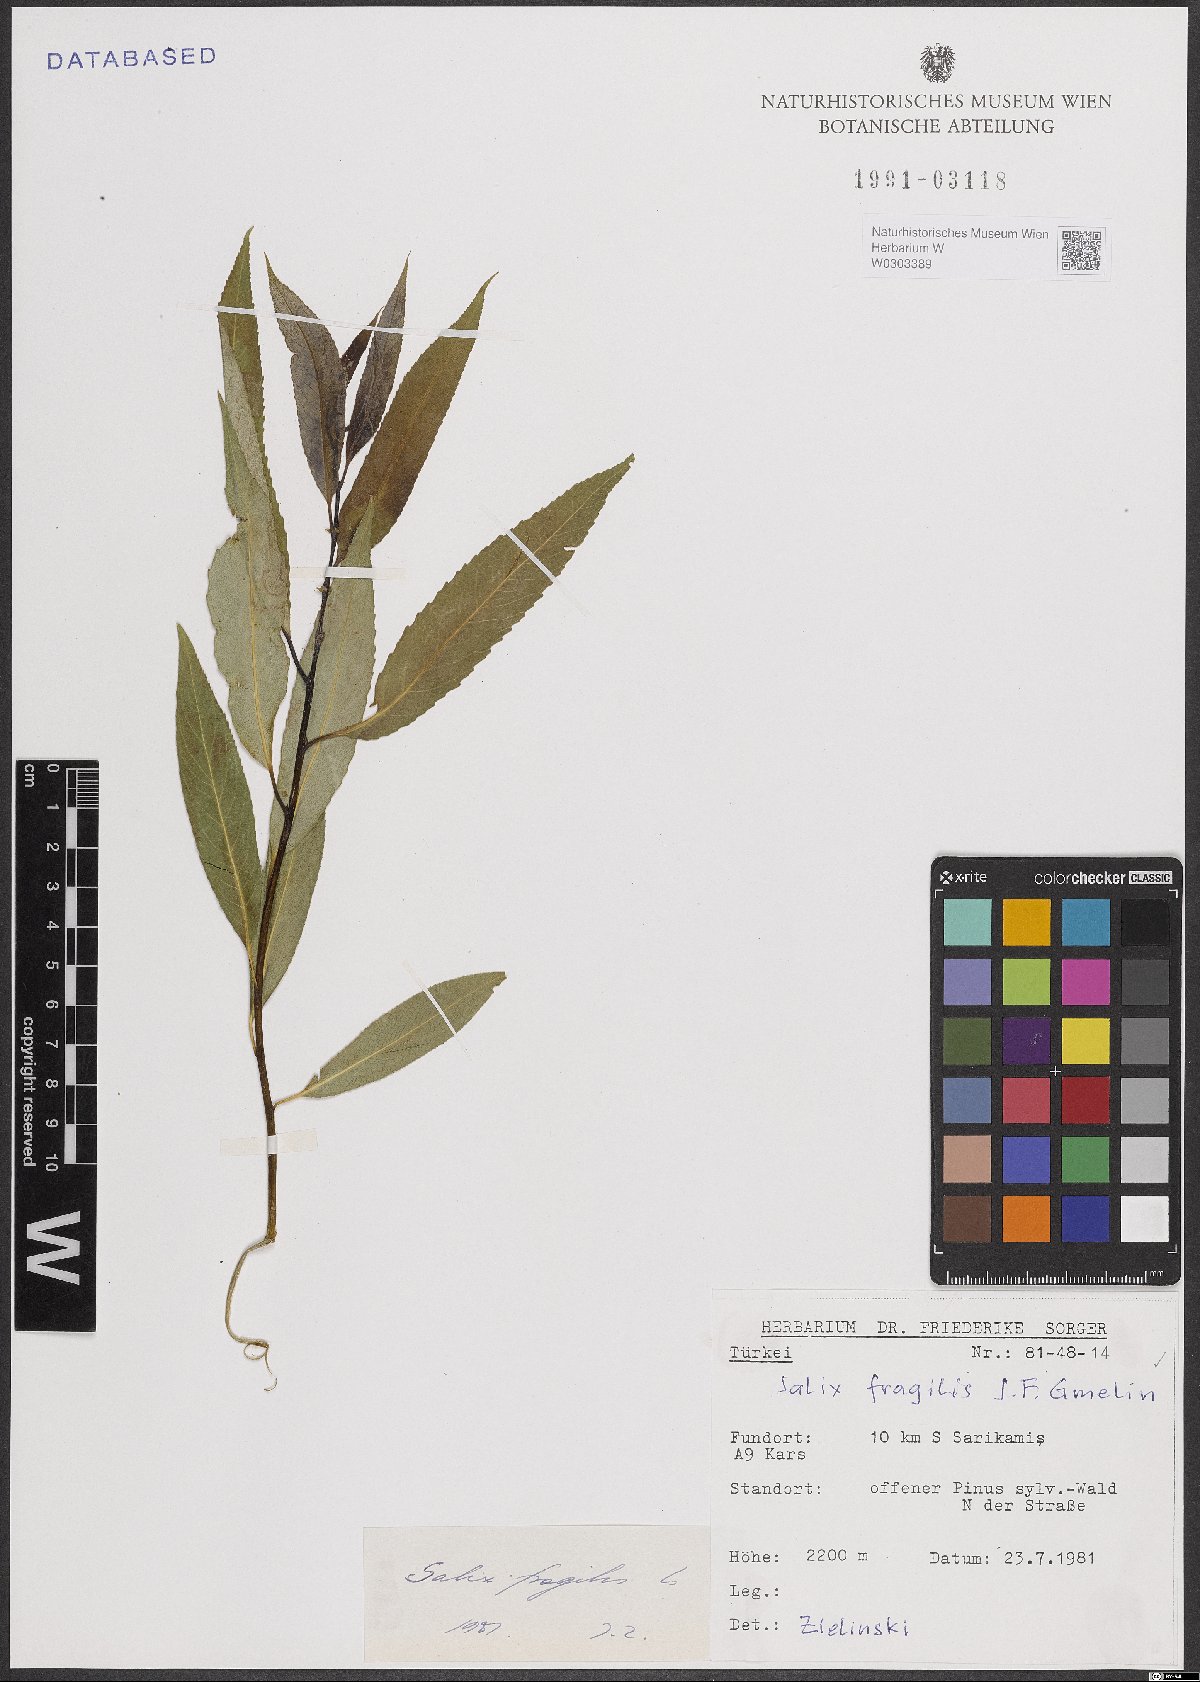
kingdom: Plantae
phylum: Tracheophyta
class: Magnoliopsida
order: Malpighiales
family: Salicaceae
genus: Salix
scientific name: Salix fragilis
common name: Crack willow
